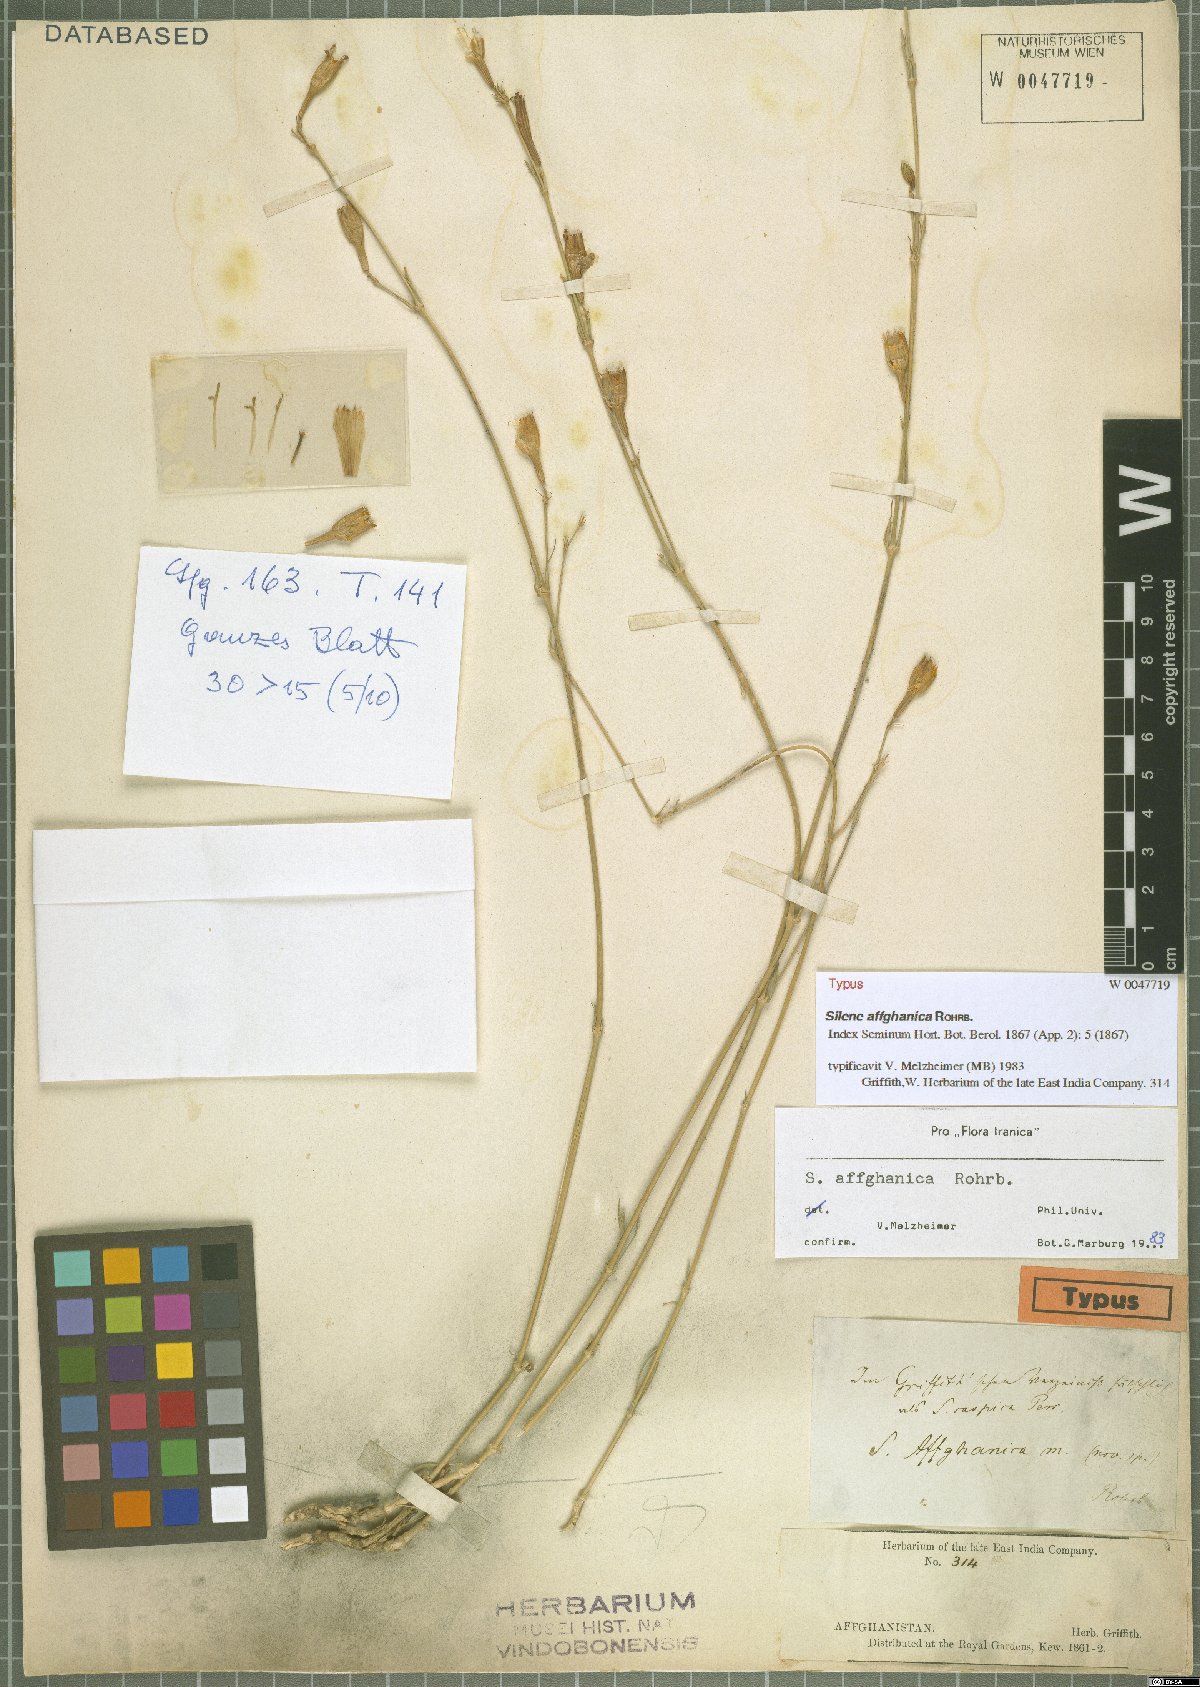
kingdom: Plantae
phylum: Tracheophyta
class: Magnoliopsida
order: Caryophyllales
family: Caryophyllaceae
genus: Silene
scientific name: Silene affghanica
